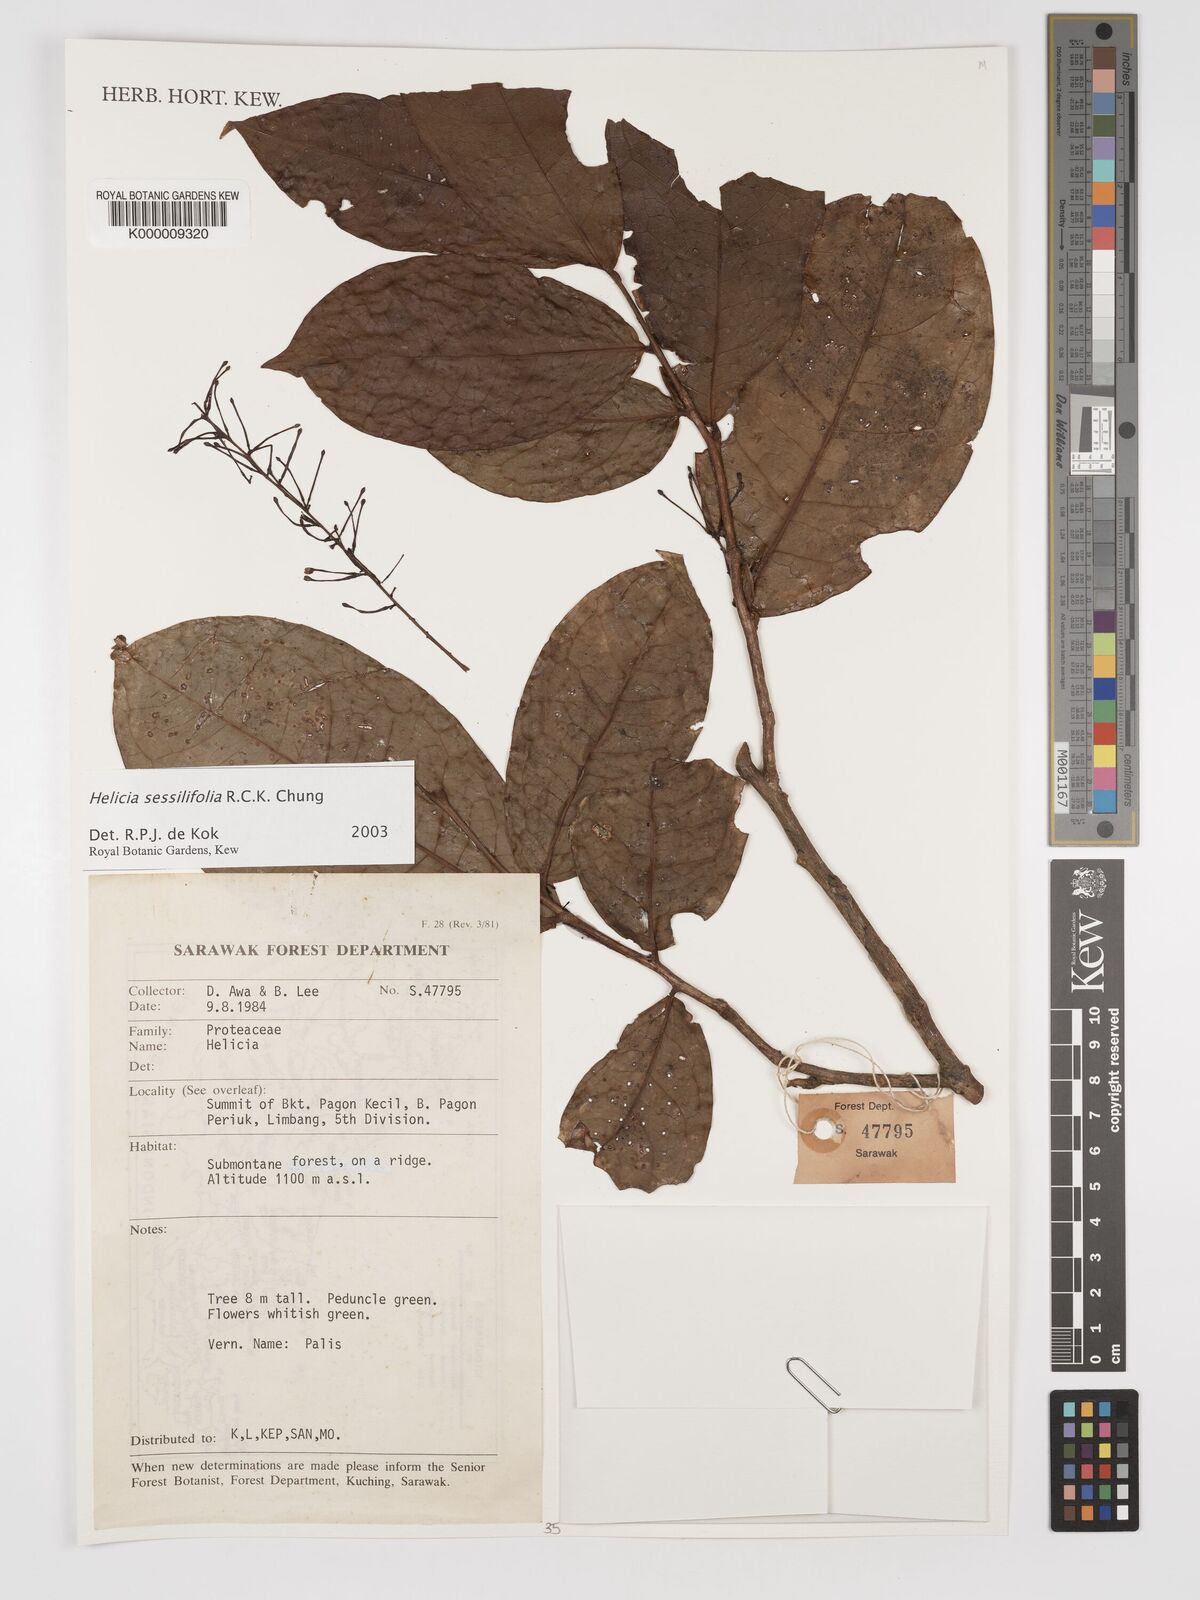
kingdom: Plantae
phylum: Tracheophyta
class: Magnoliopsida
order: Proteales
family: Proteaceae
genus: Helicia
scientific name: Helicia sessilifolia
